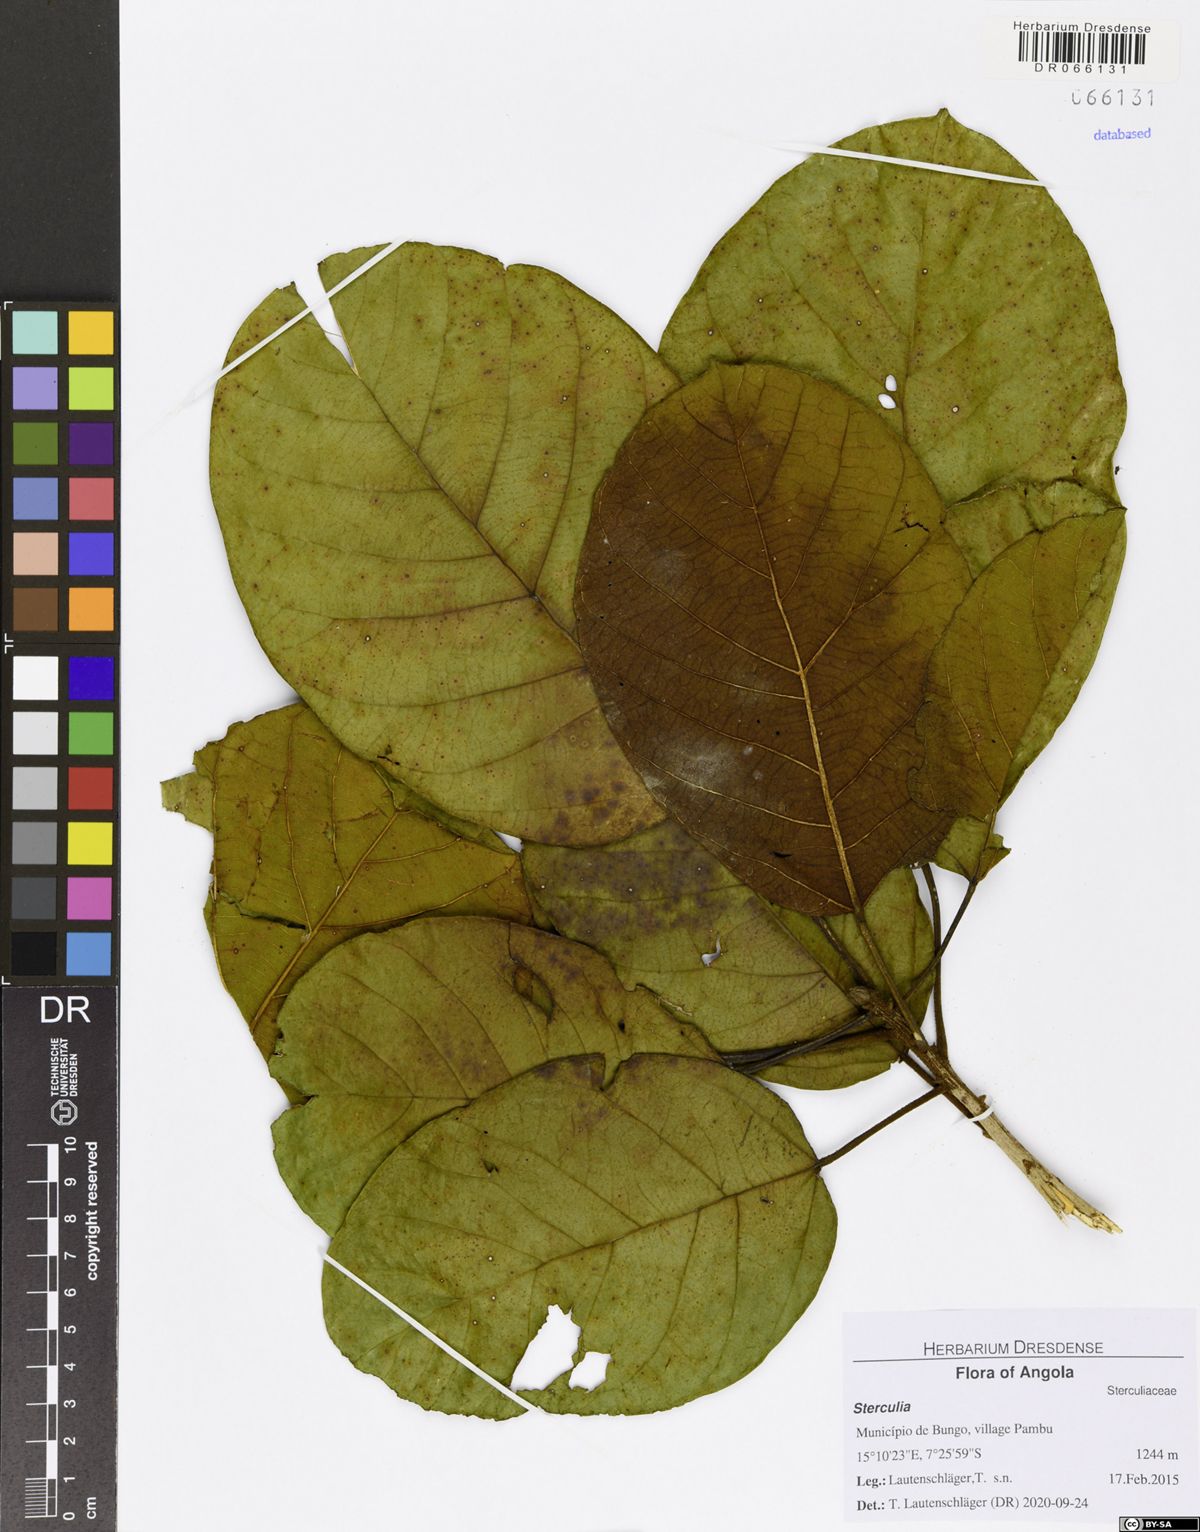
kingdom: Plantae
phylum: Tracheophyta
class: Magnoliopsida
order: Malvales
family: Malvaceae
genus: Sterculia
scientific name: Sterculia tragacantha
